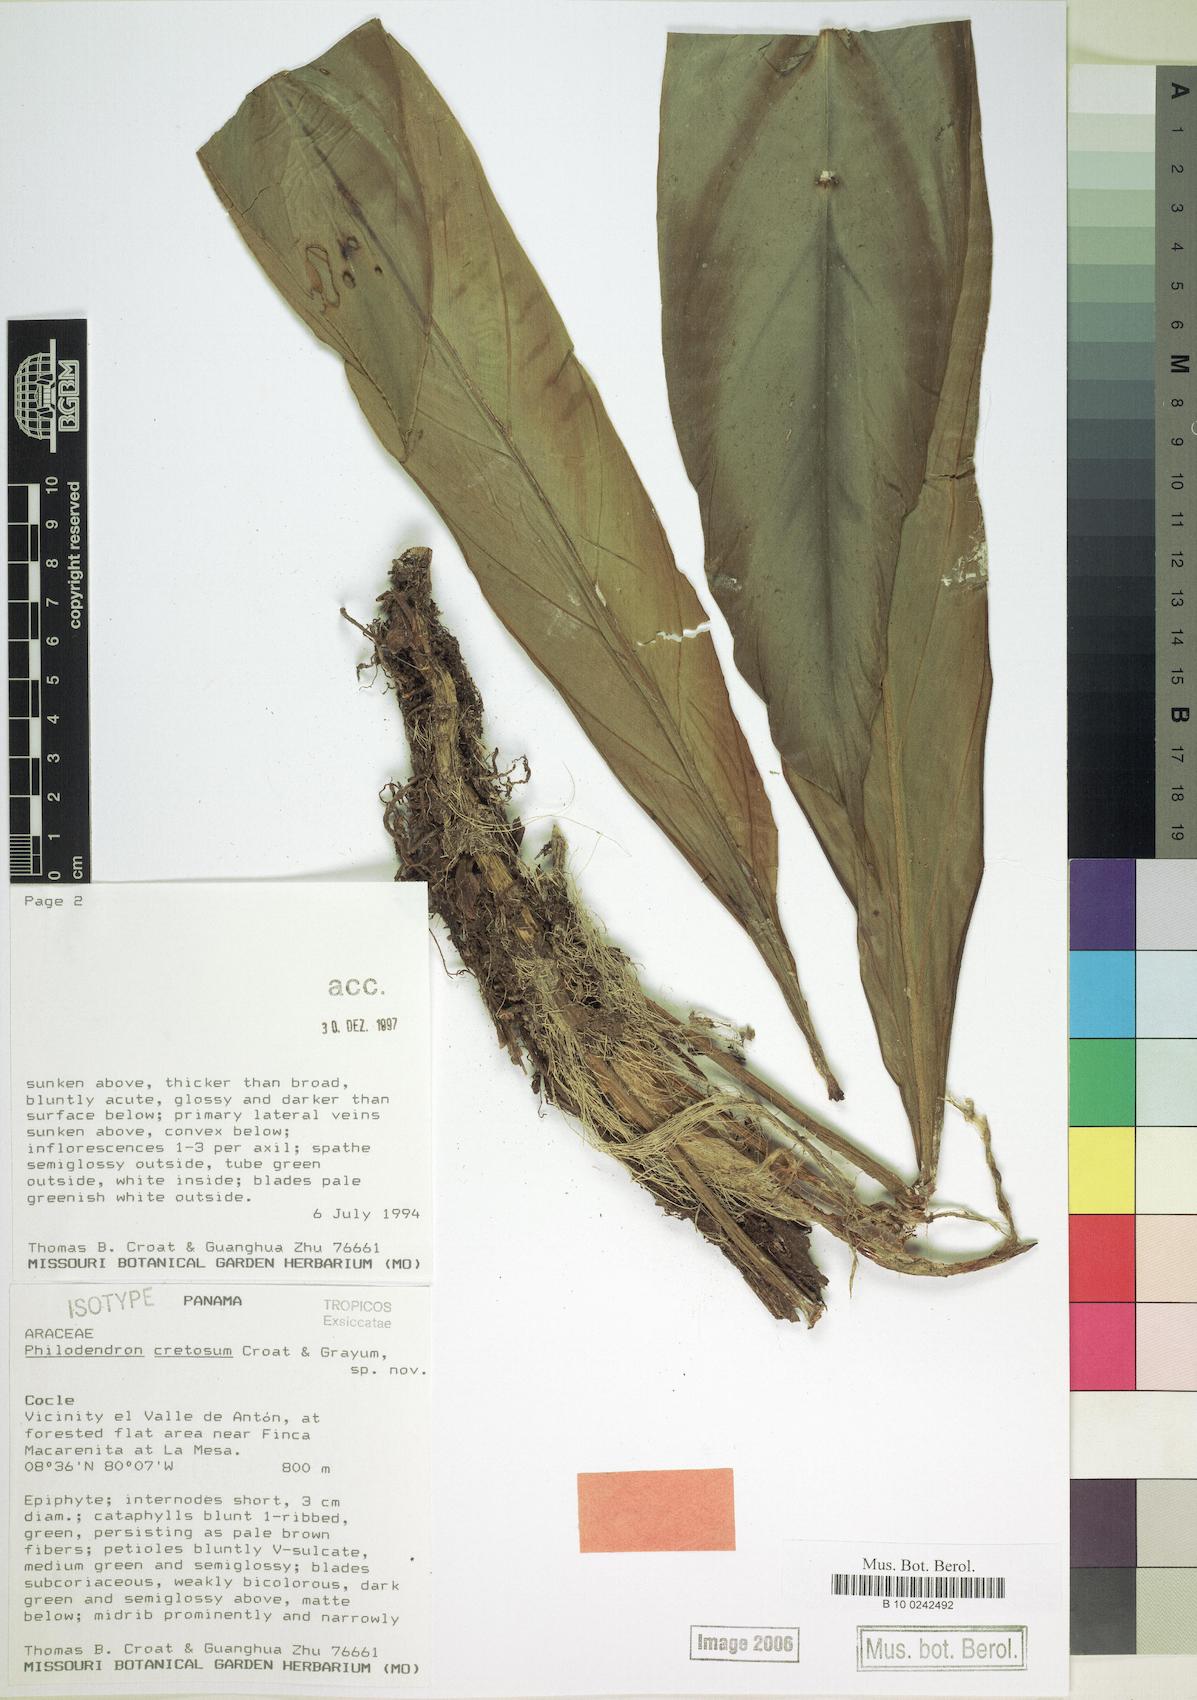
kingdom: Plantae
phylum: Tracheophyta
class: Liliopsida
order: Alismatales
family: Araceae
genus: Philodendron
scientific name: Philodendron cretosum
